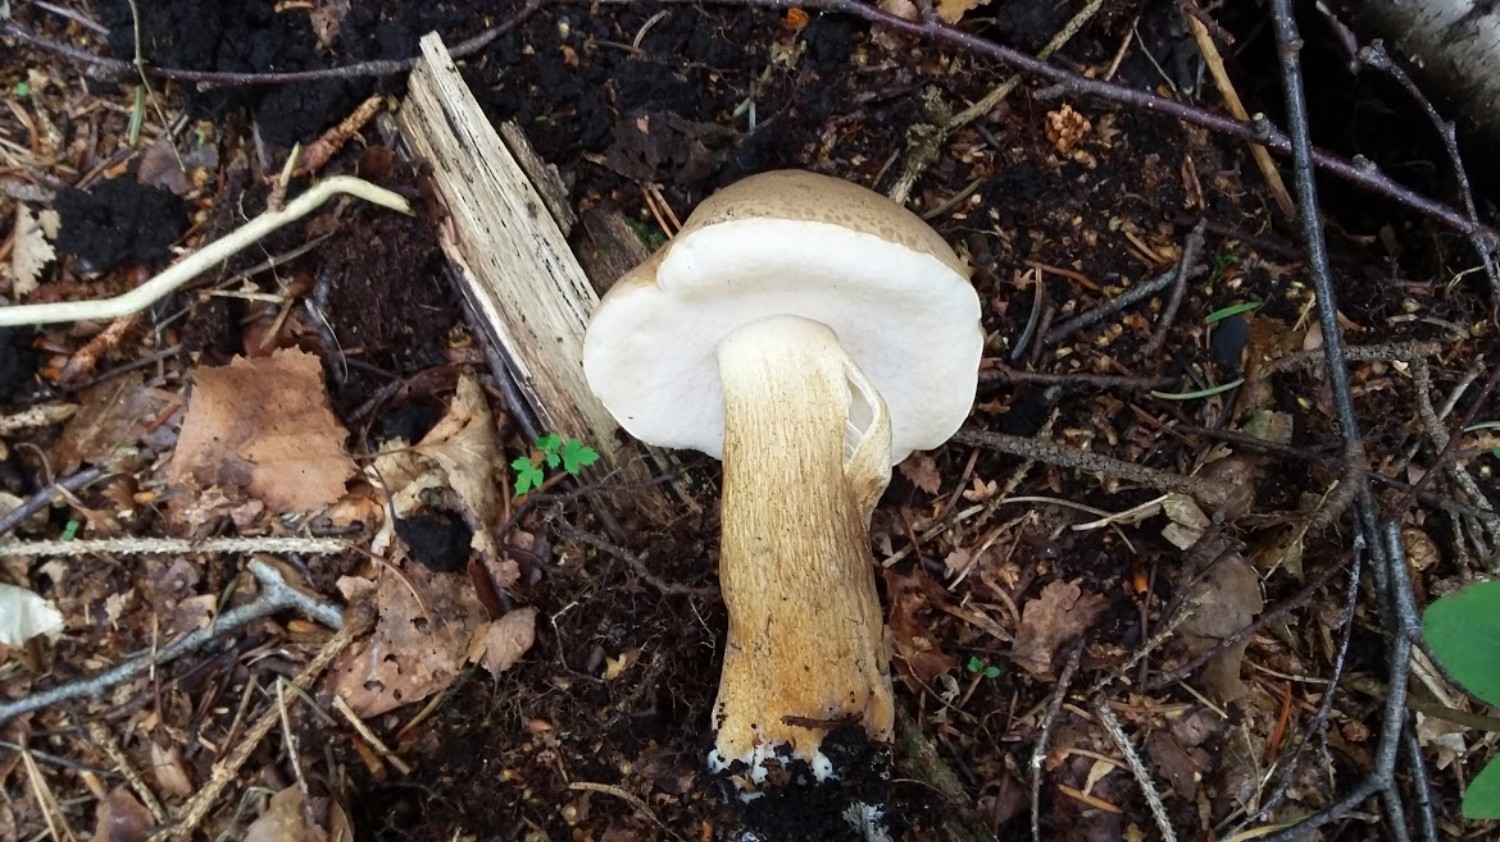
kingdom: Fungi
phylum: Basidiomycota
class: Agaricomycetes
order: Boletales
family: Boletaceae
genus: Tylopilus
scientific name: Tylopilus felleus
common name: galderørhat
